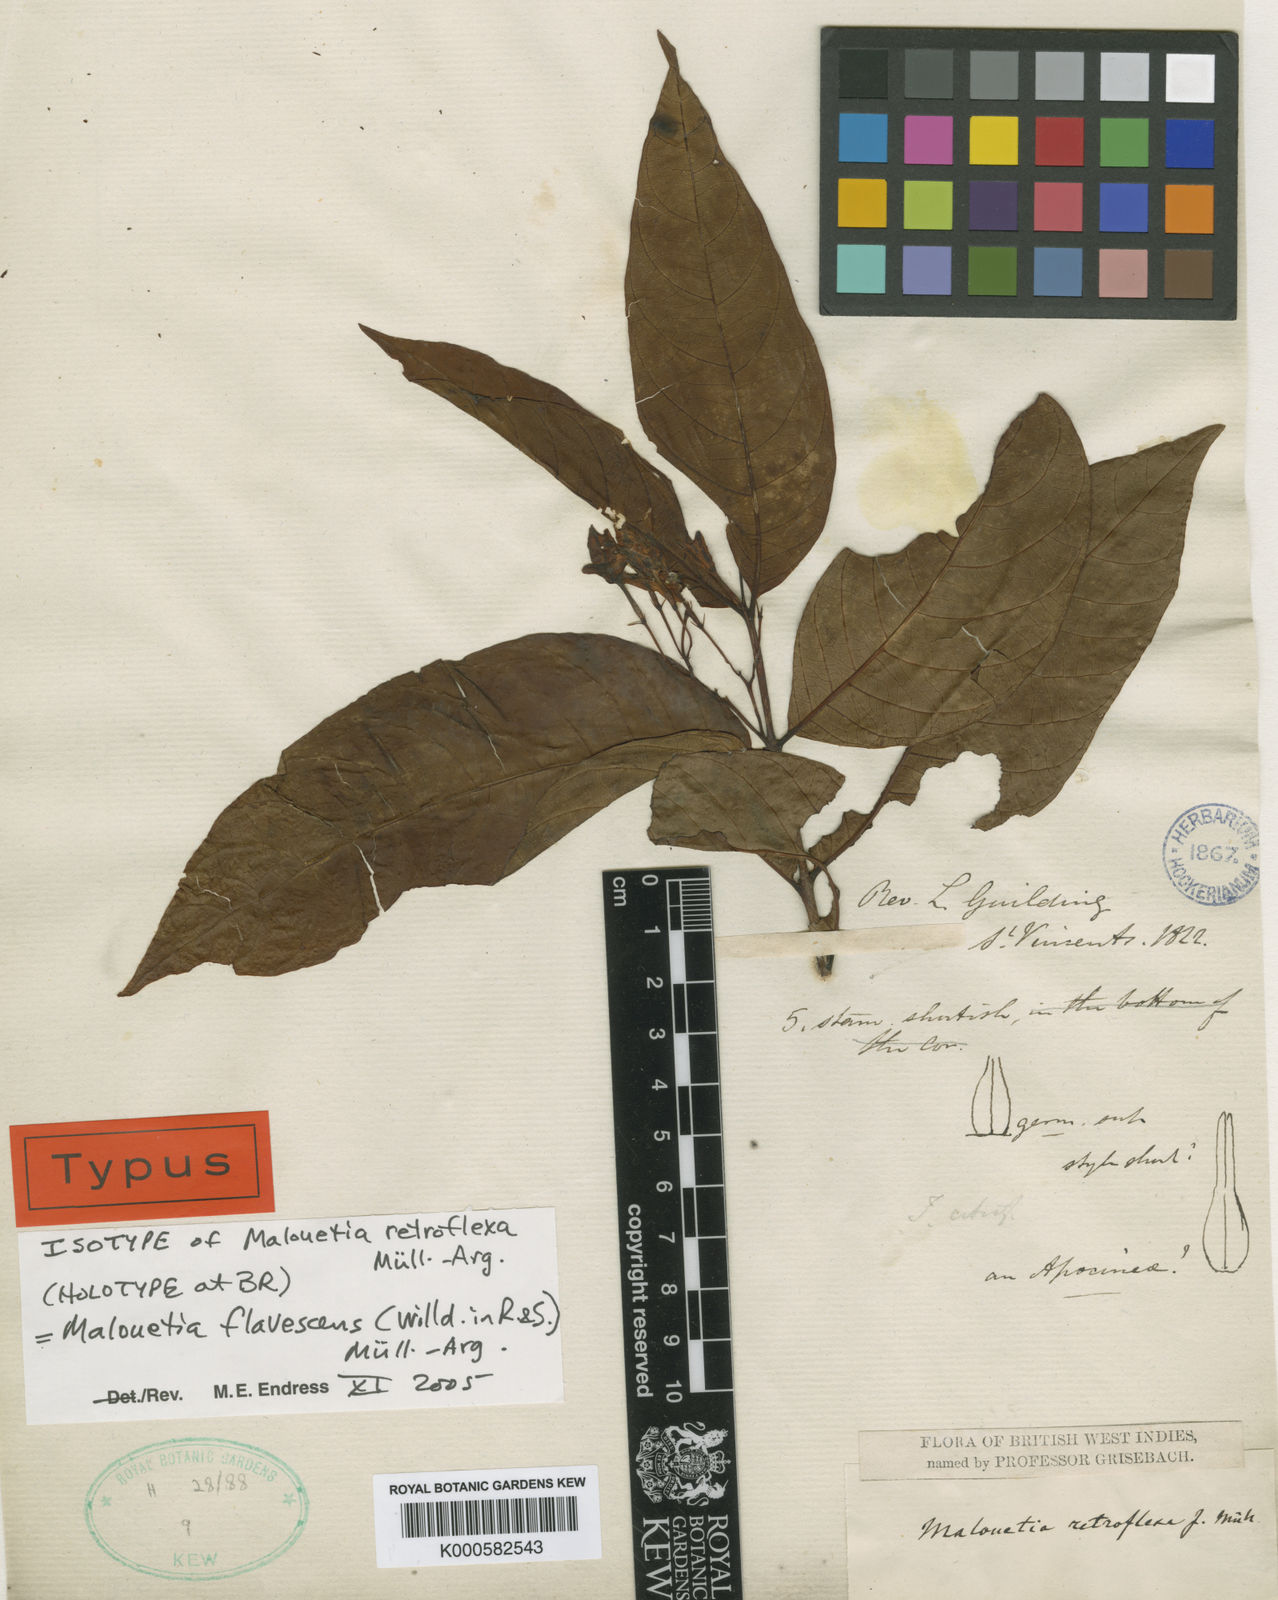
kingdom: Plantae
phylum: Tracheophyta
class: Magnoliopsida
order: Gentianales
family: Apocynaceae
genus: Malouetia
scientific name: Malouetia cubana
